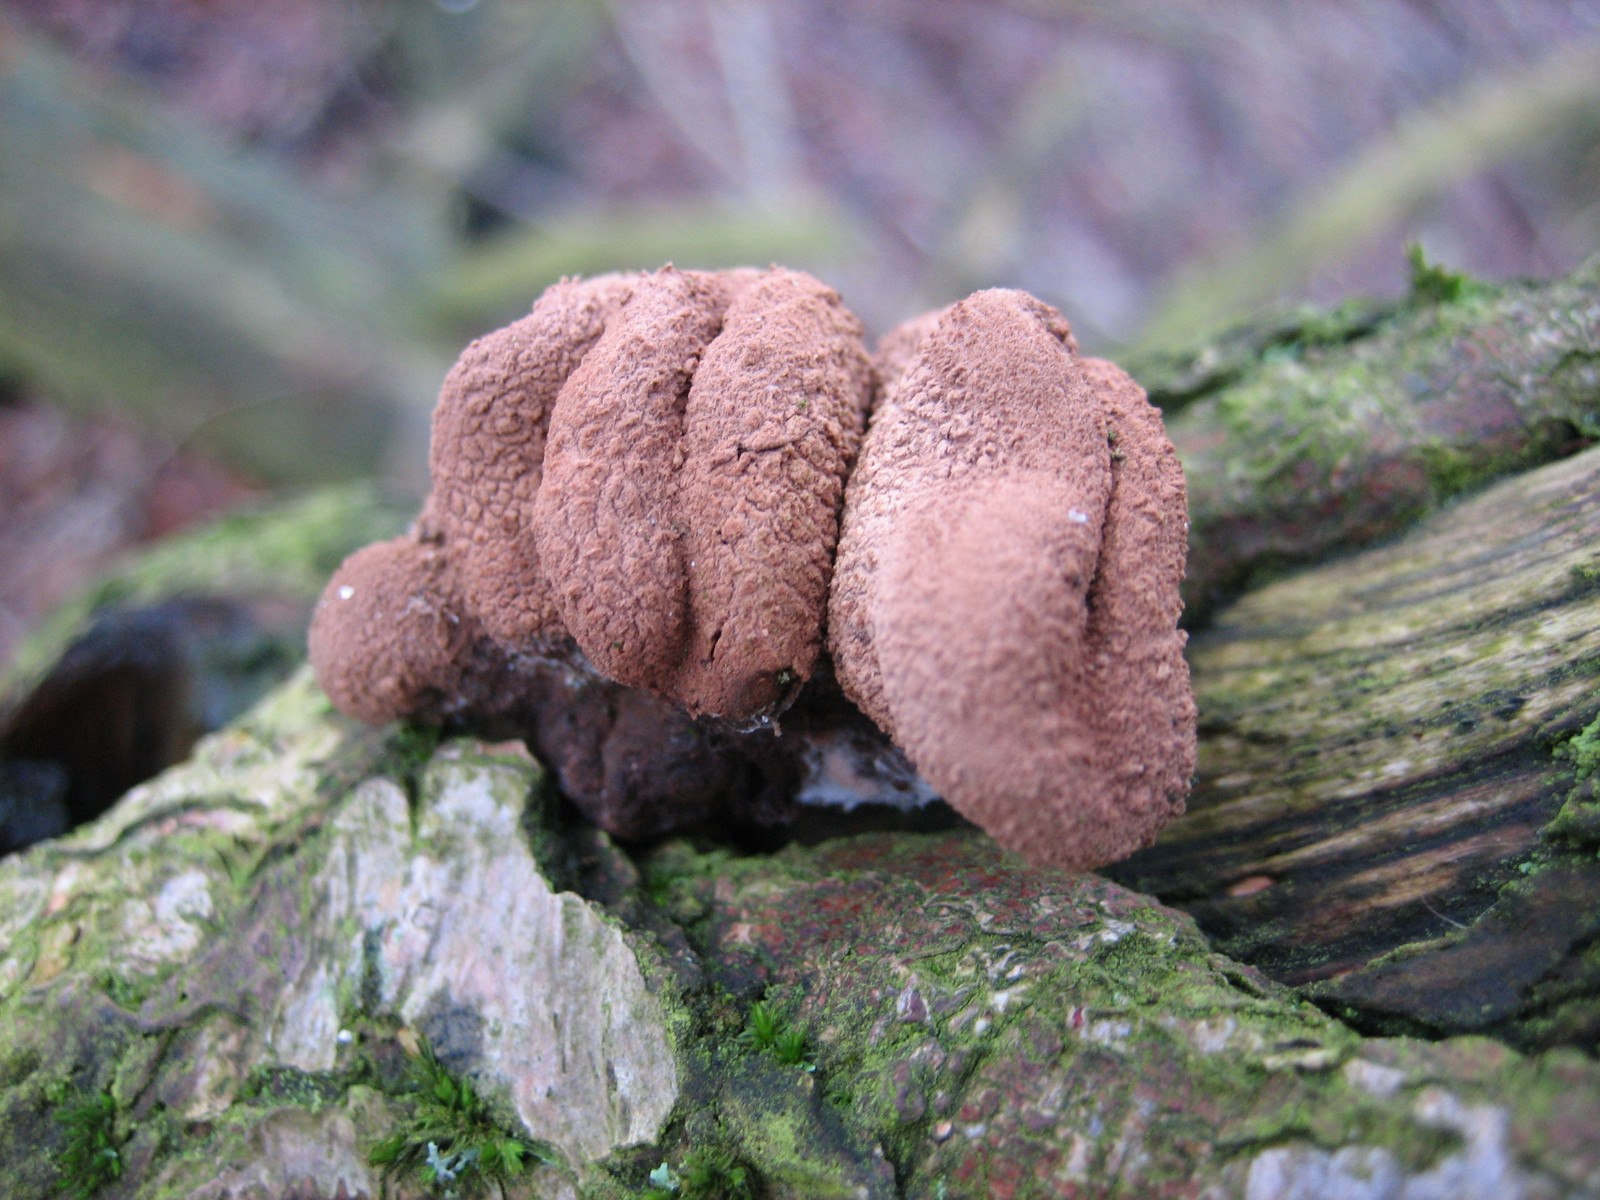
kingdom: Fungi
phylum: Ascomycota
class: Leotiomycetes
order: Helotiales
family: Cenangiaceae
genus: Encoelia
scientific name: Encoelia furfuracea
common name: hassel-læderskive
